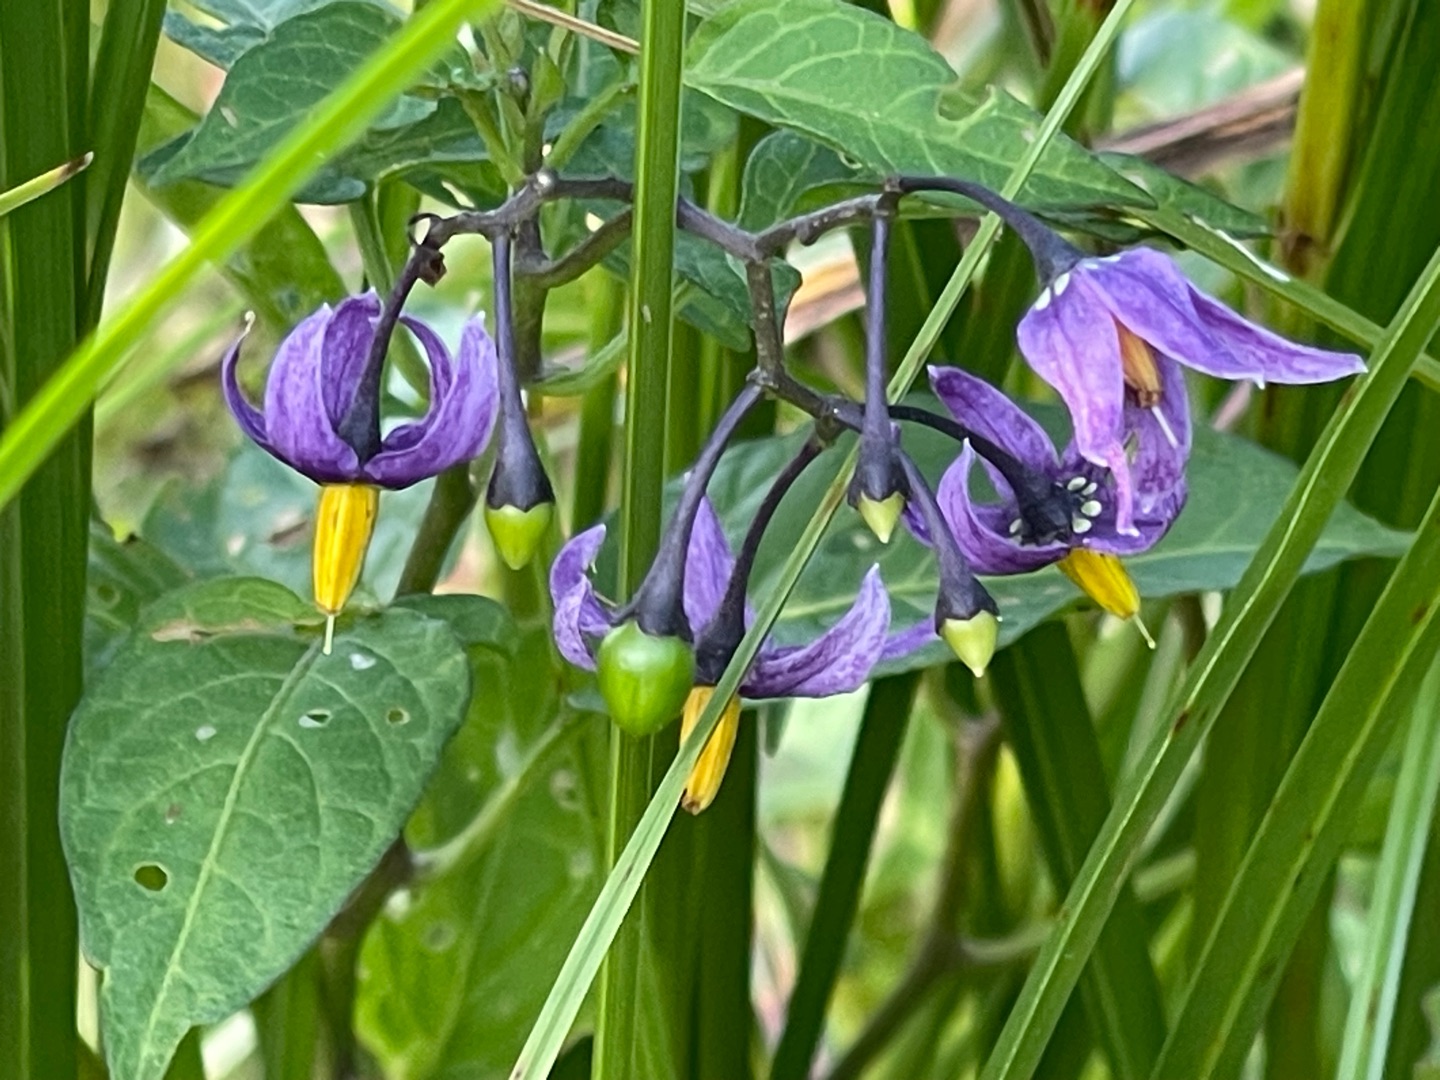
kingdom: Plantae
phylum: Tracheophyta
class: Magnoliopsida
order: Solanales
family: Solanaceae
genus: Solanum
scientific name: Solanum dulcamara
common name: Bittersød natskygge
